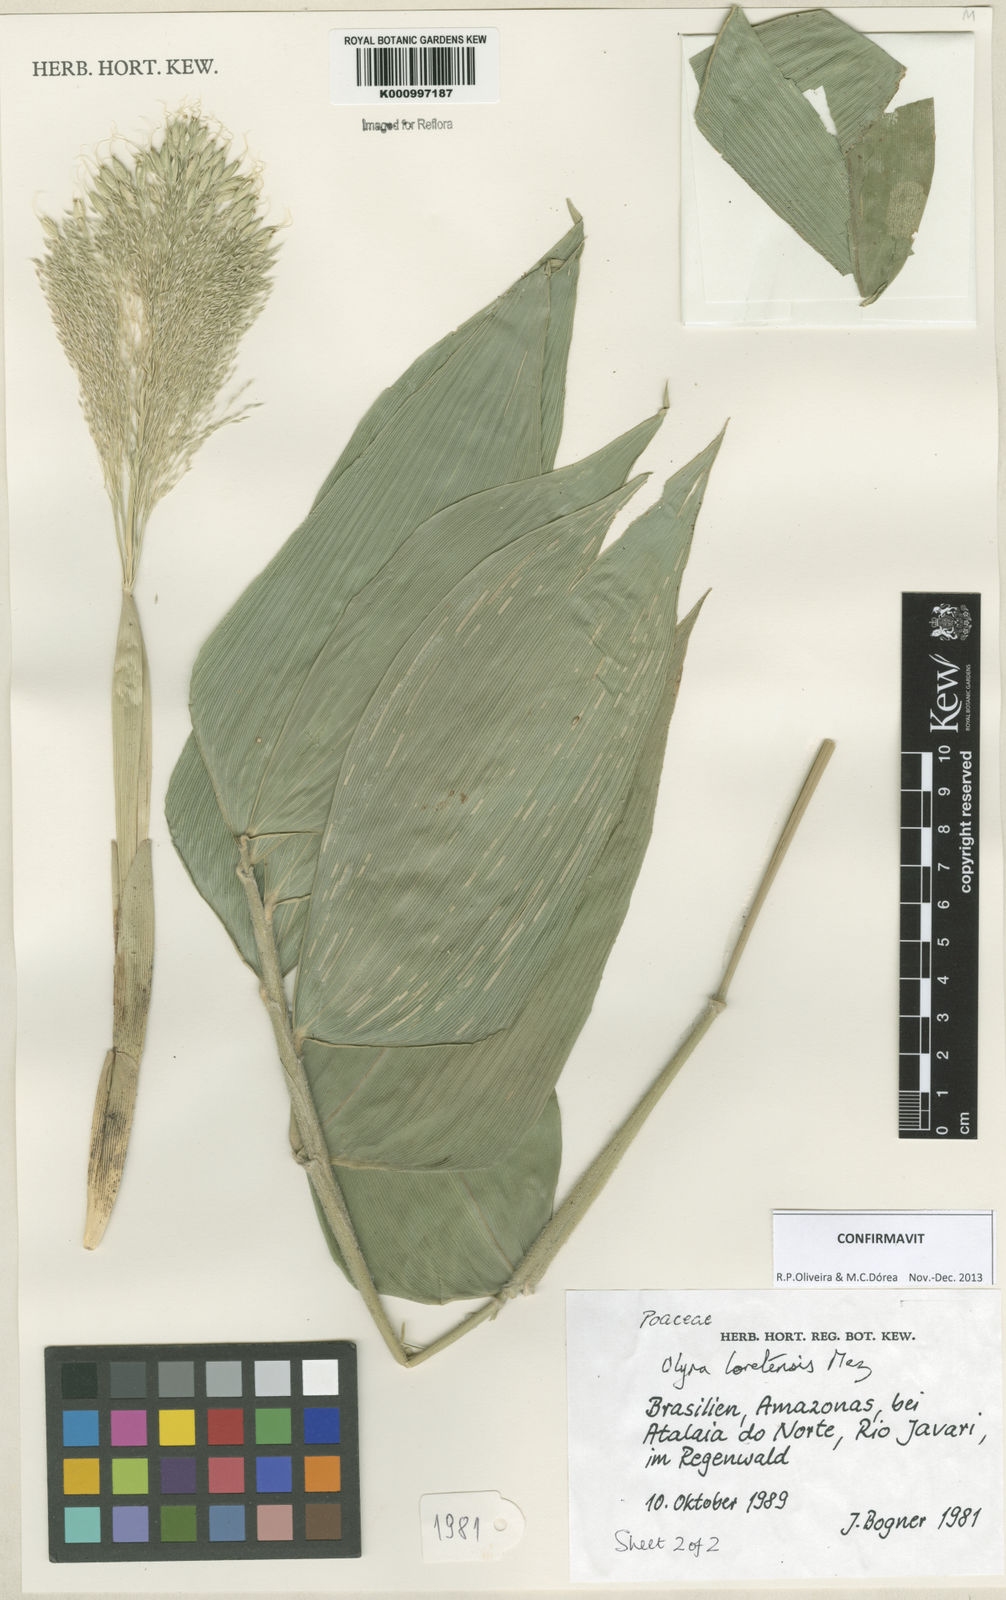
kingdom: Plantae
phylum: Tracheophyta
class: Liliopsida
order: Poales
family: Poaceae
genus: Olyra
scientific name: Olyra loretensis
